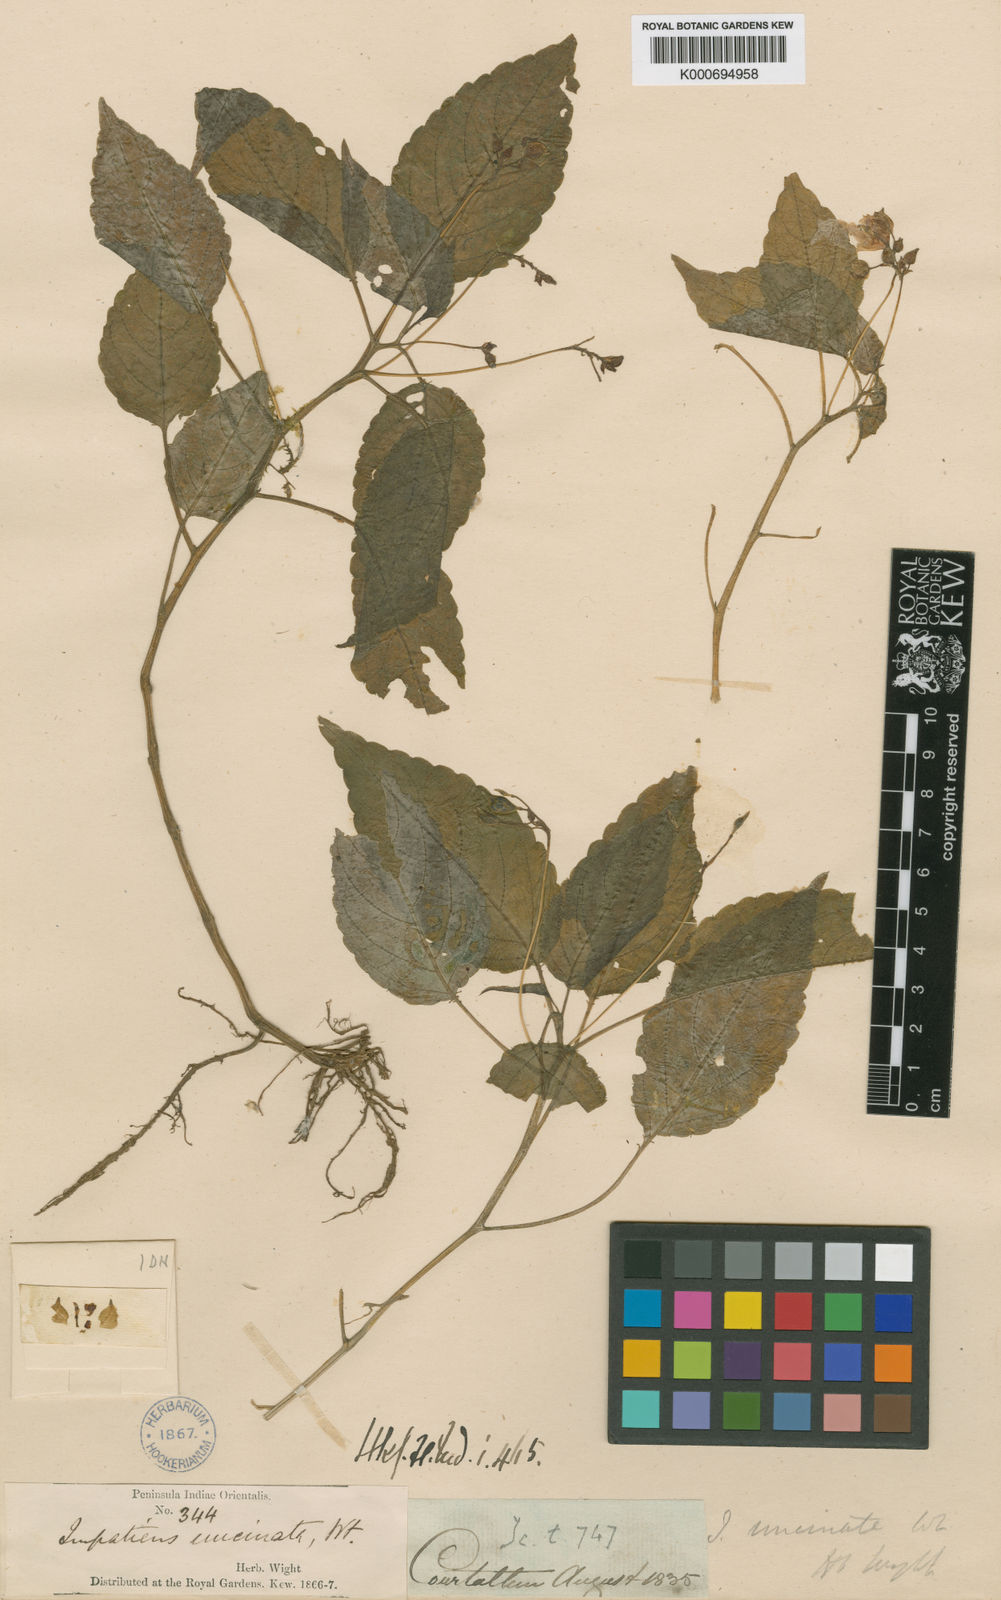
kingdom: Plantae
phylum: Tracheophyta
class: Magnoliopsida
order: Ericales
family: Balsaminaceae
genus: Impatiens
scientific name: Impatiens uncinata
